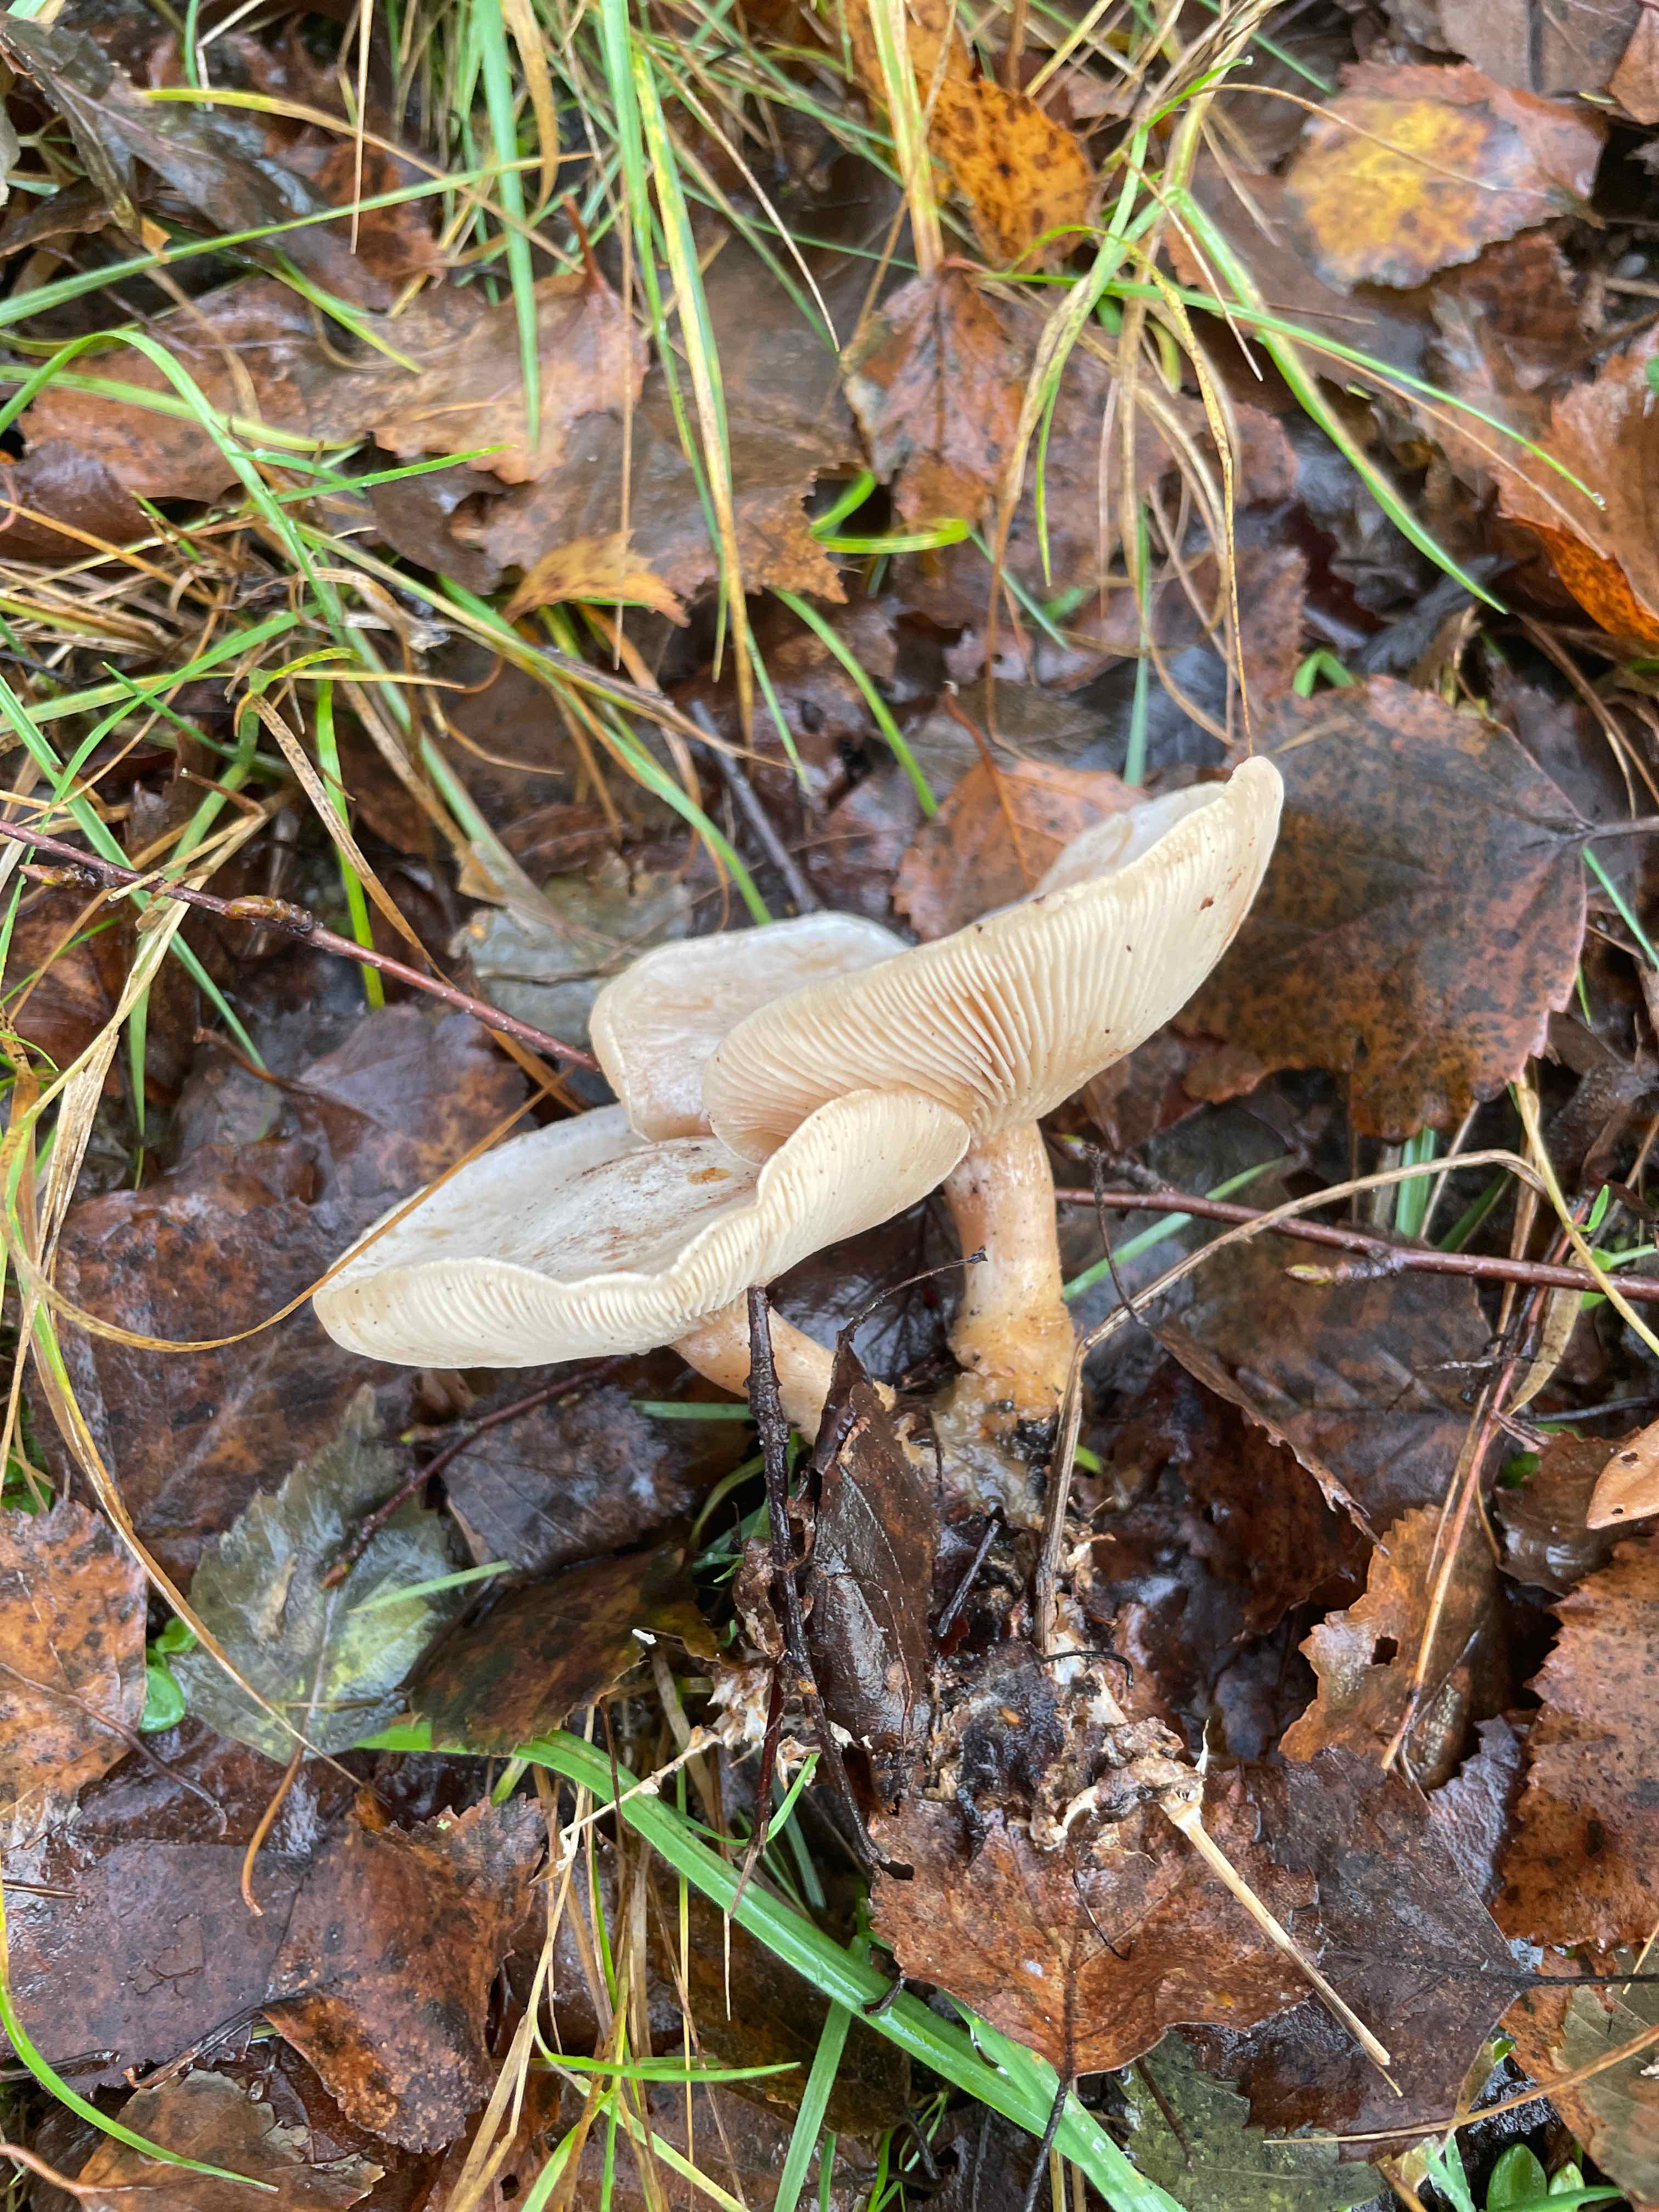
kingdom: Fungi
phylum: Basidiomycota
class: Agaricomycetes
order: Agaricales
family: Tricholomataceae
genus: Clitocybe
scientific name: Clitocybe phyllophila
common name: løv-tragthat
